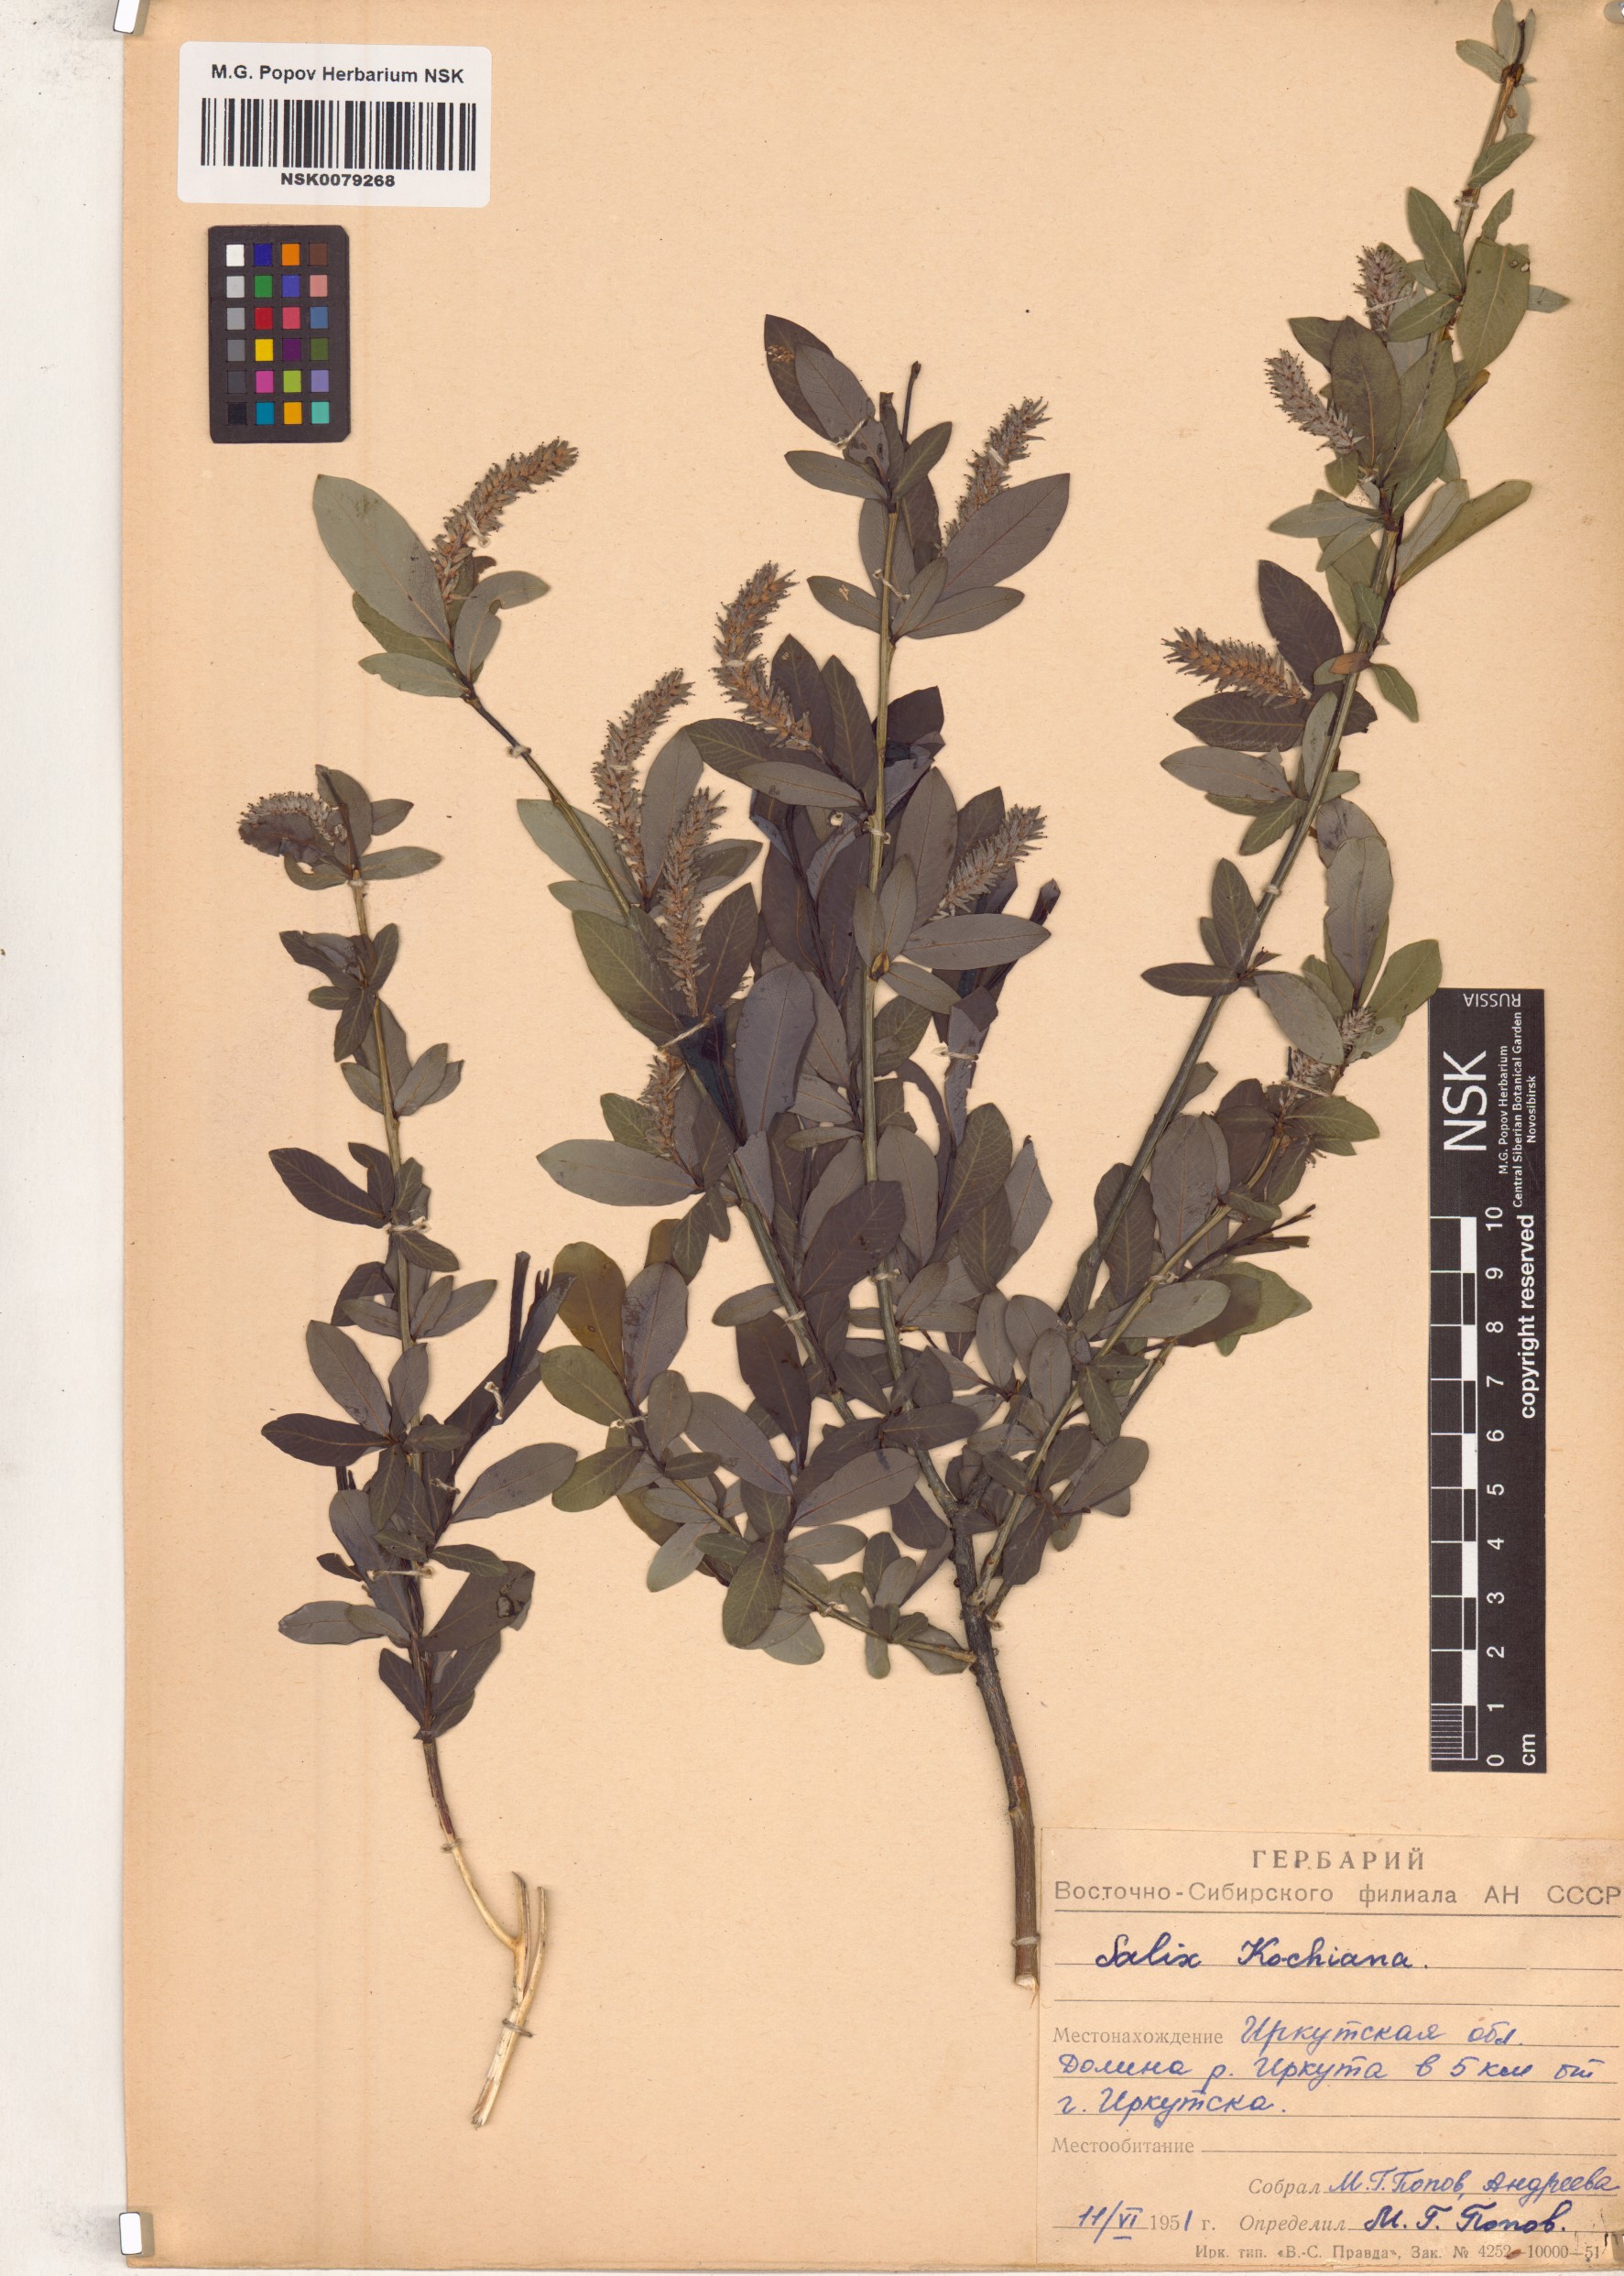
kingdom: Plantae
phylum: Tracheophyta
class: Magnoliopsida
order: Malpighiales
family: Salicaceae
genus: Salix
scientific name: Salix kochiana
